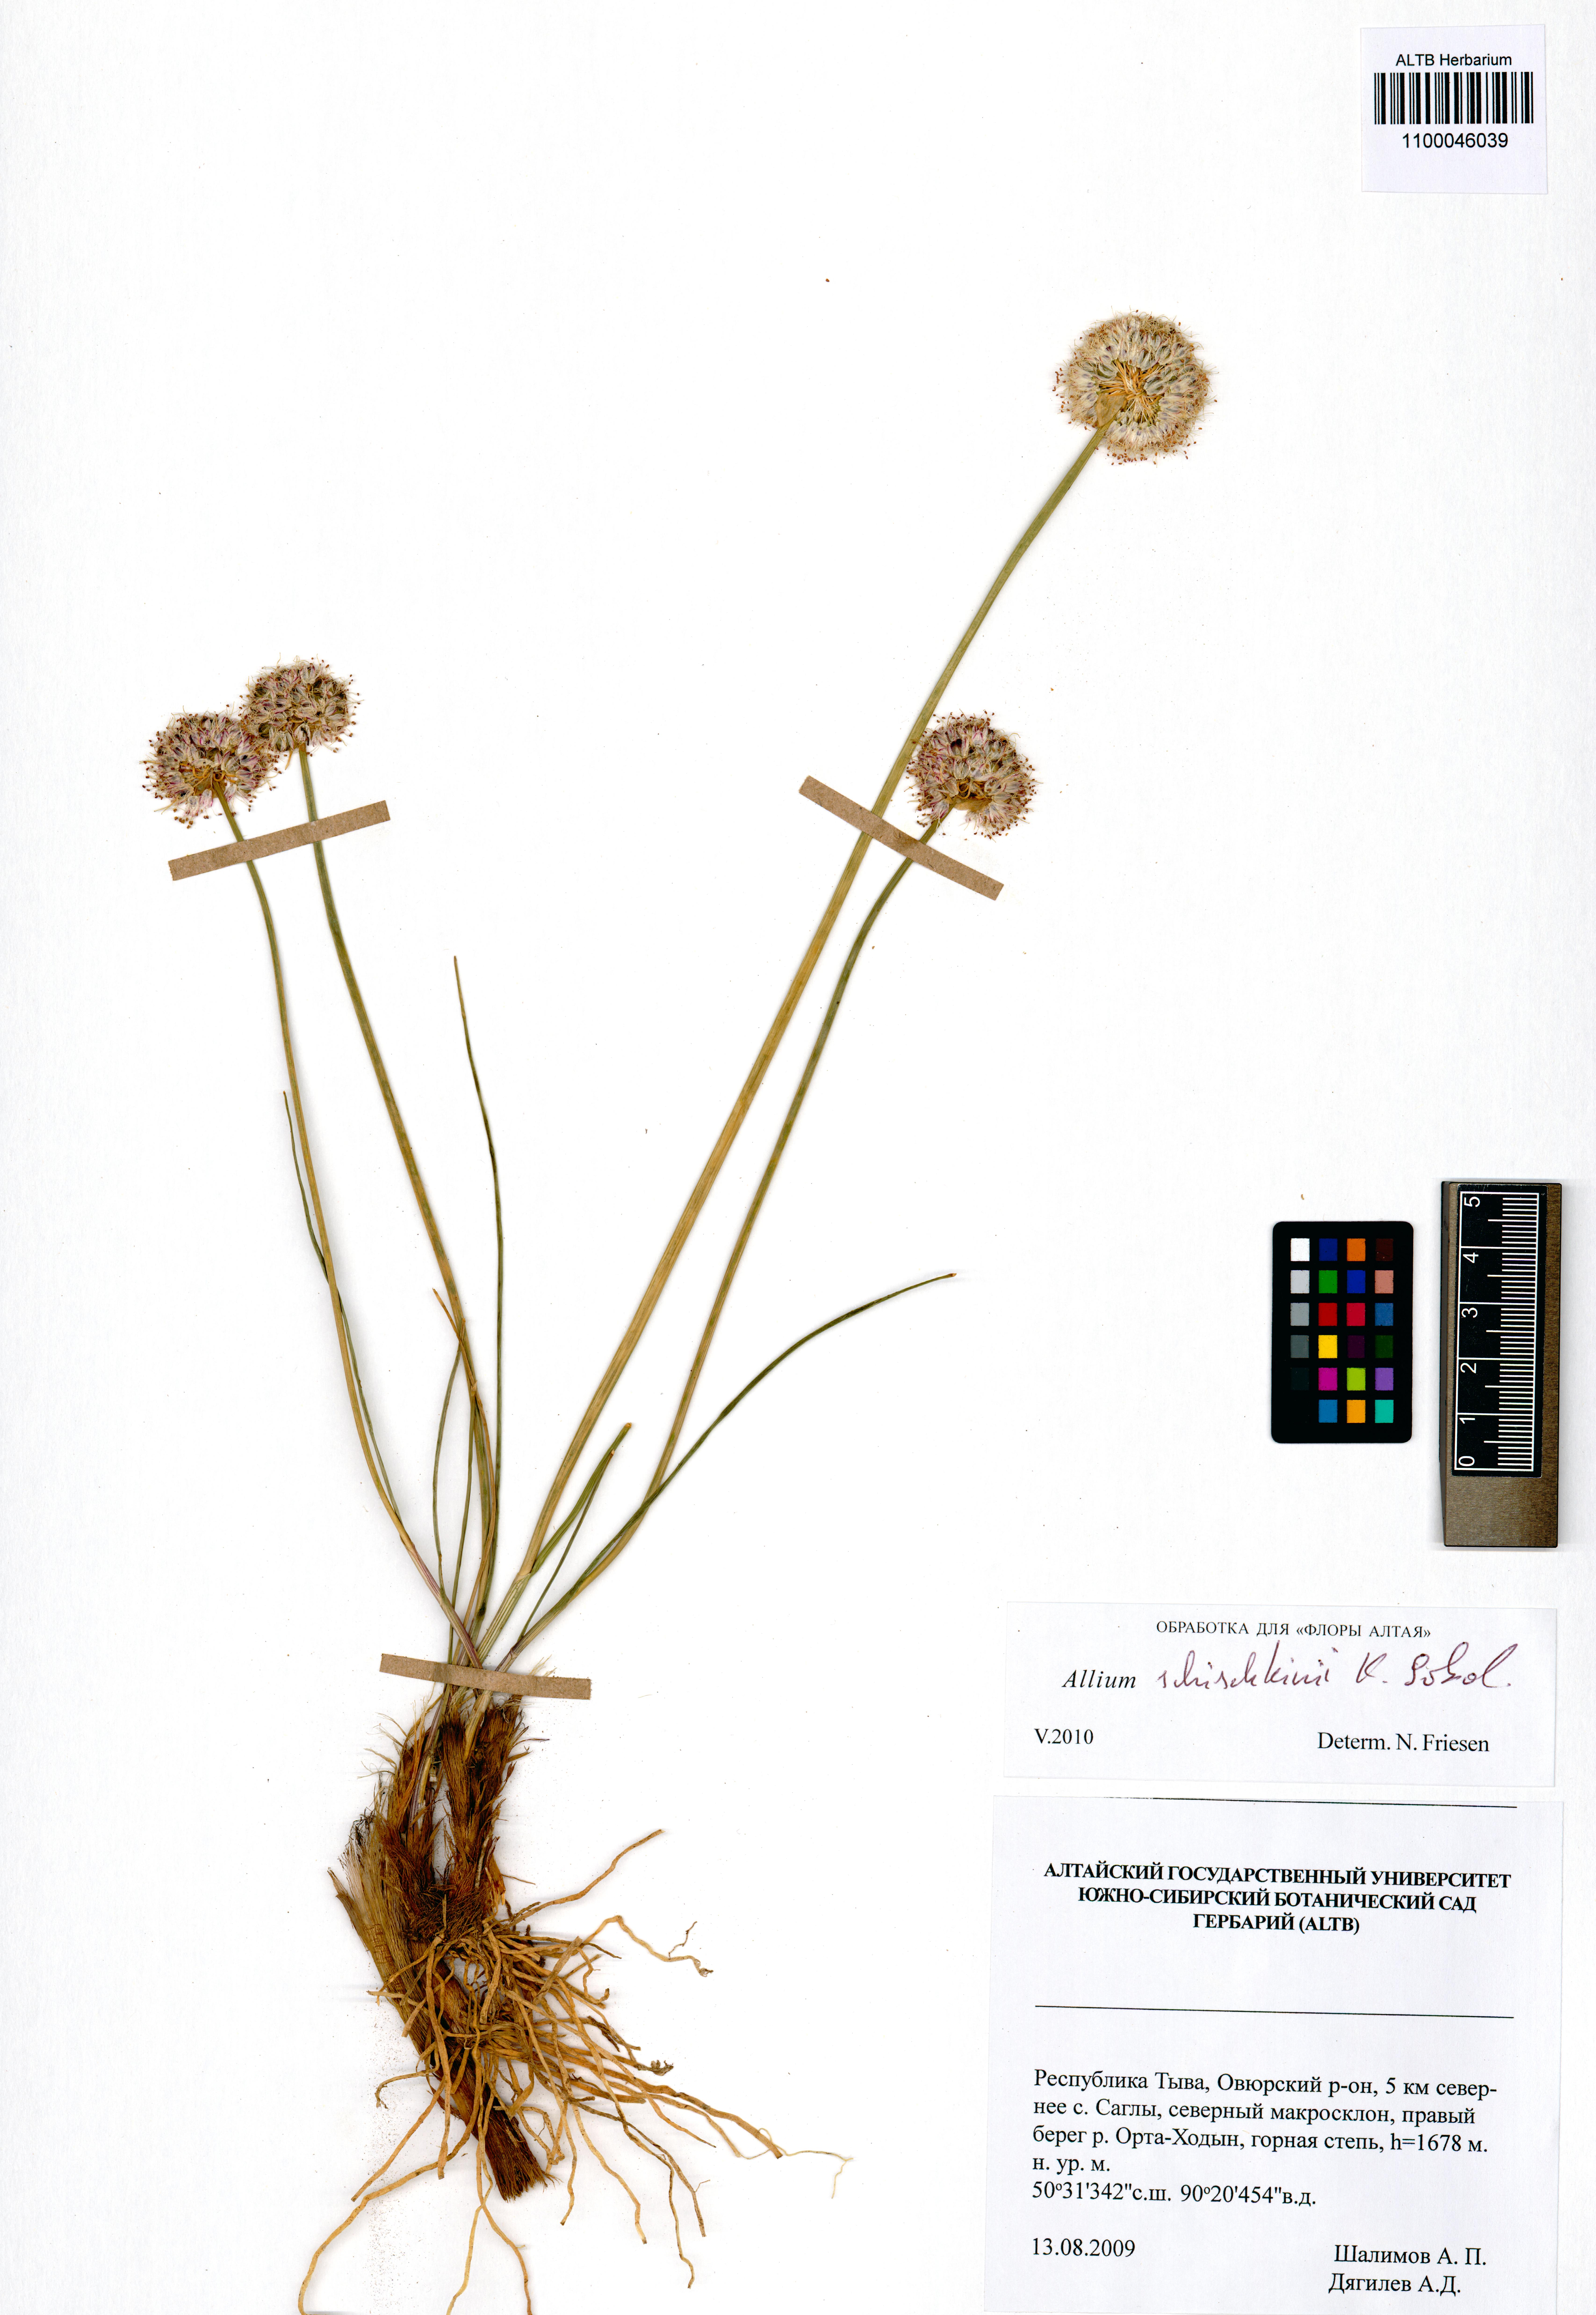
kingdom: Plantae
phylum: Tracheophyta
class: Liliopsida
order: Asparagales
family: Amaryllidaceae
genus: Allium
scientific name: Allium schischkinii
